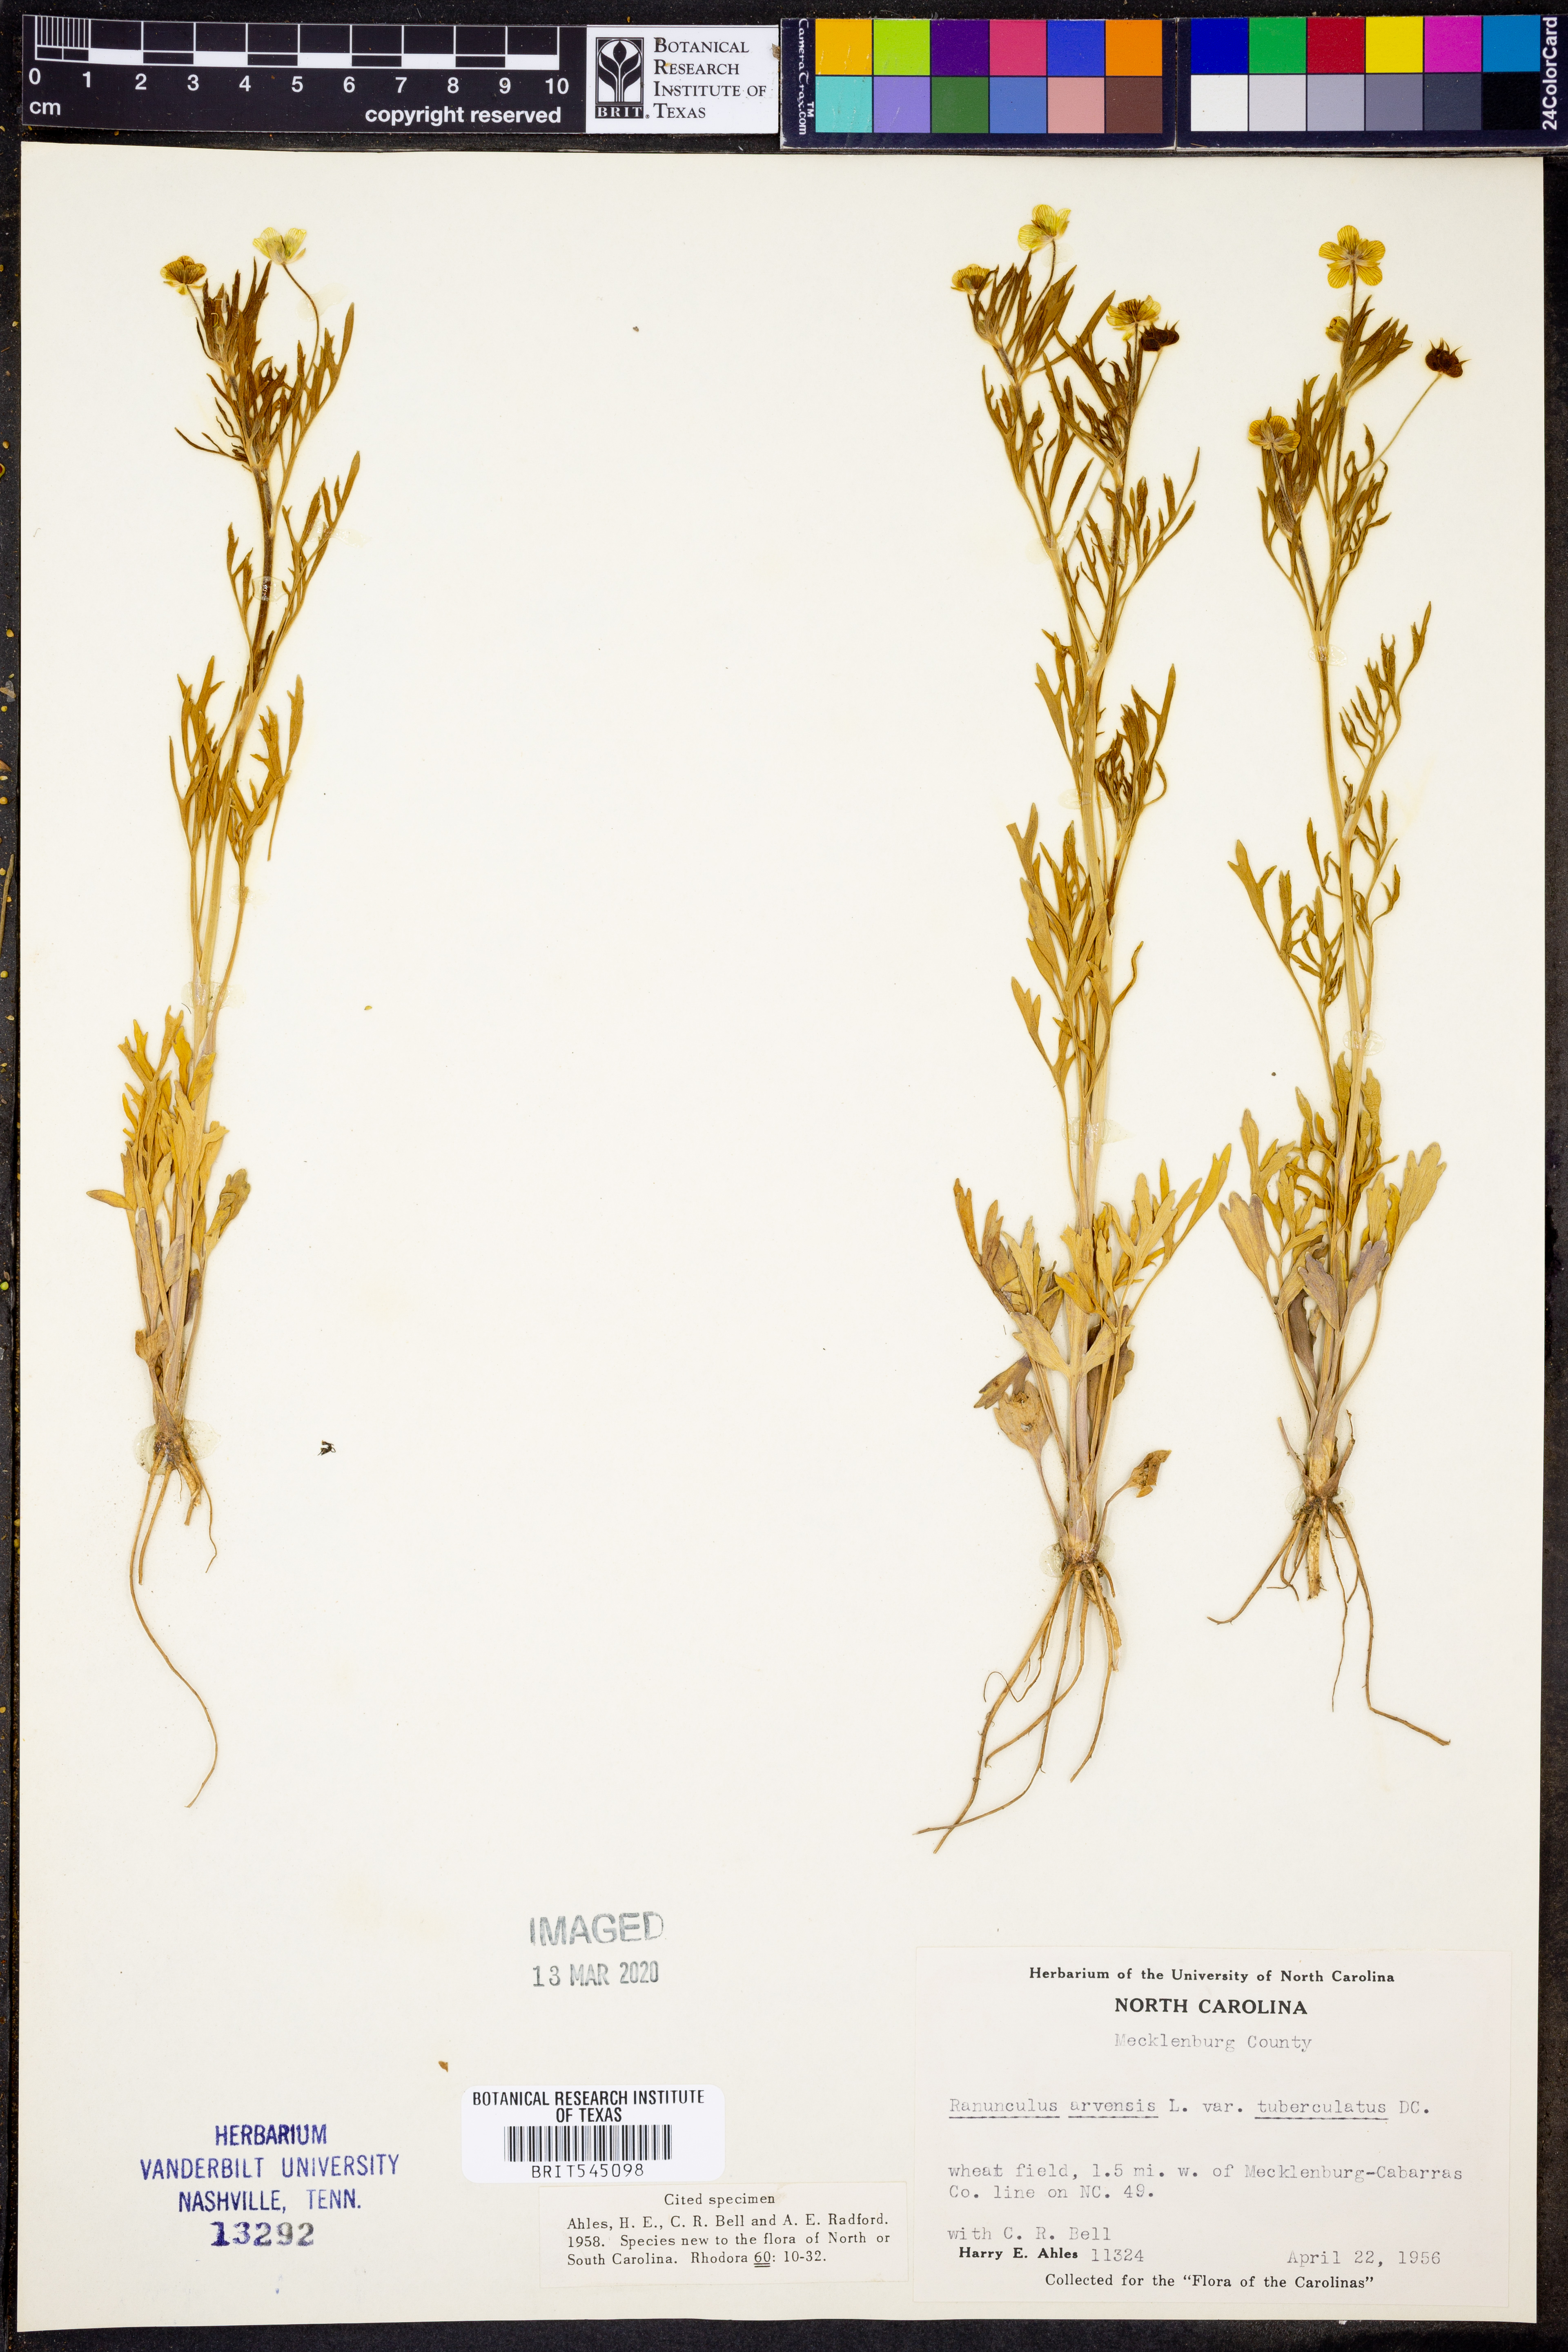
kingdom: Plantae
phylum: Tracheophyta
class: Magnoliopsida
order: Ranunculales
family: Ranunculaceae
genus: Ranunculus
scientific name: Ranunculus arvensis
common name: Corn buttercup
